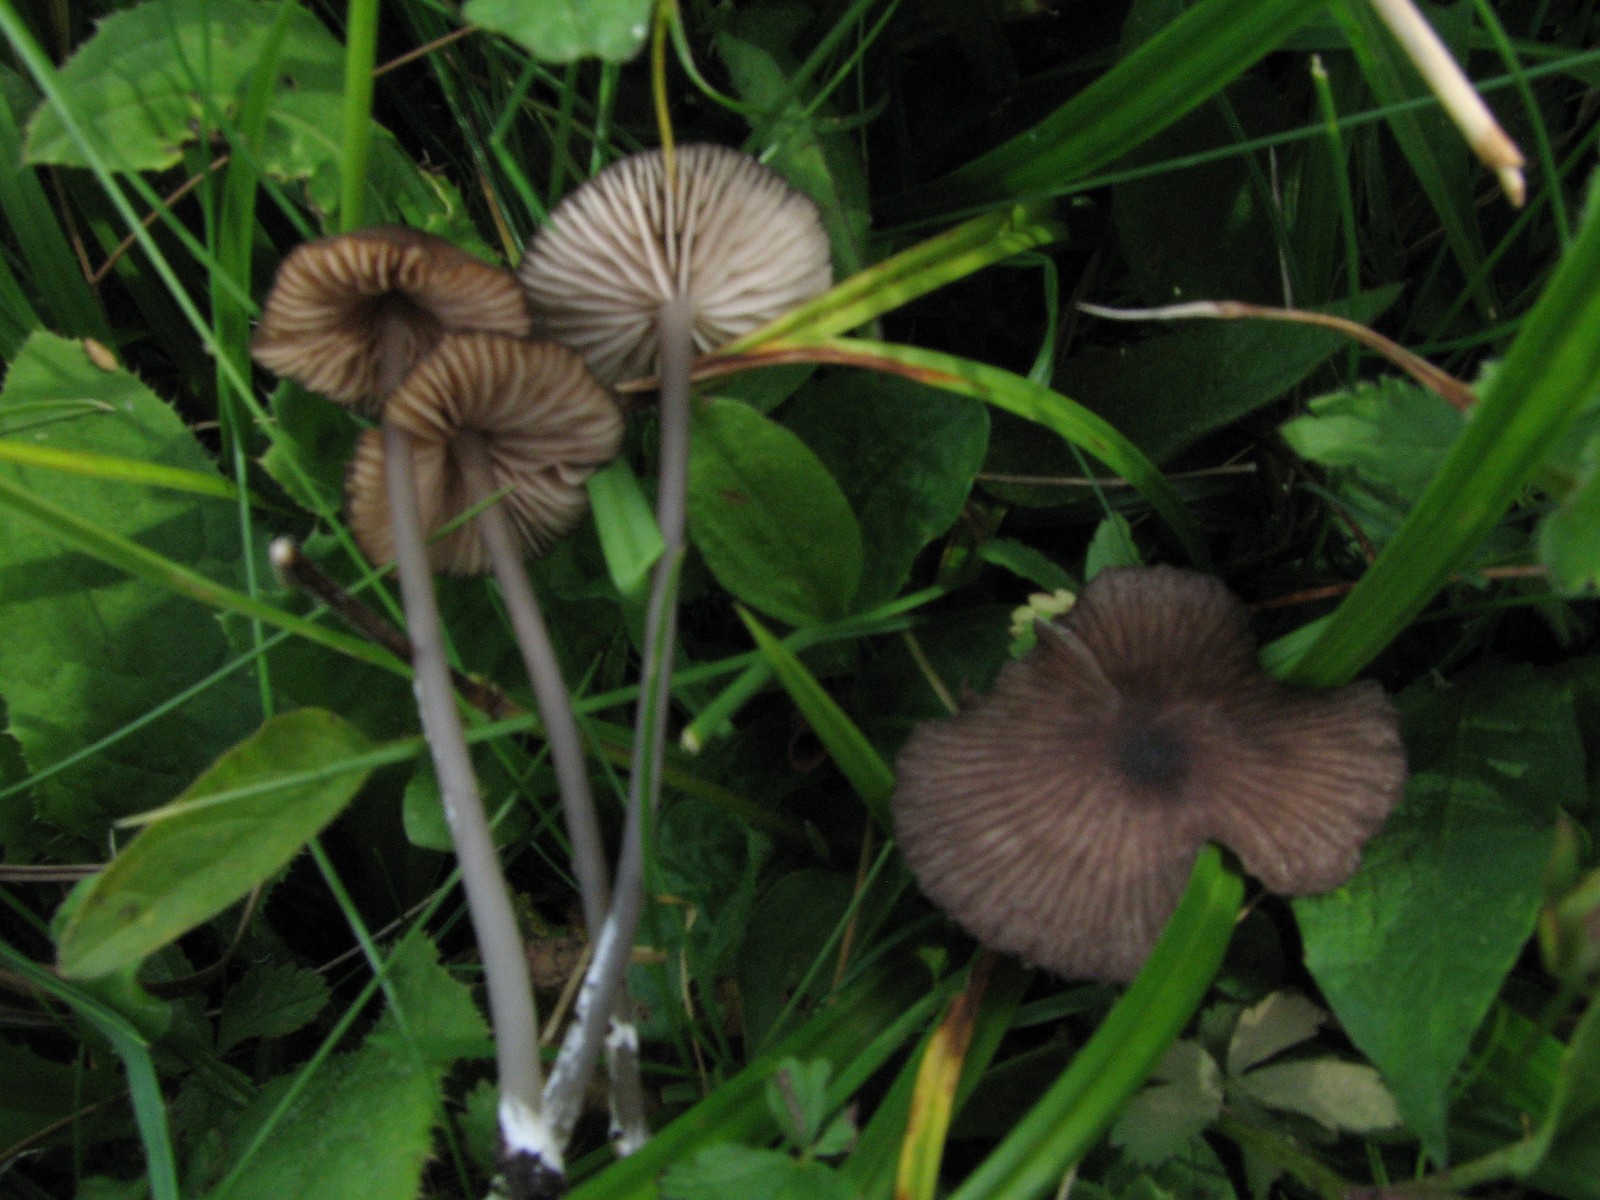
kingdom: Fungi
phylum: Basidiomycota
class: Agaricomycetes
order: Agaricales
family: Entolomataceae
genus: Entoloma
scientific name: Entoloma brunneoserrulatum
